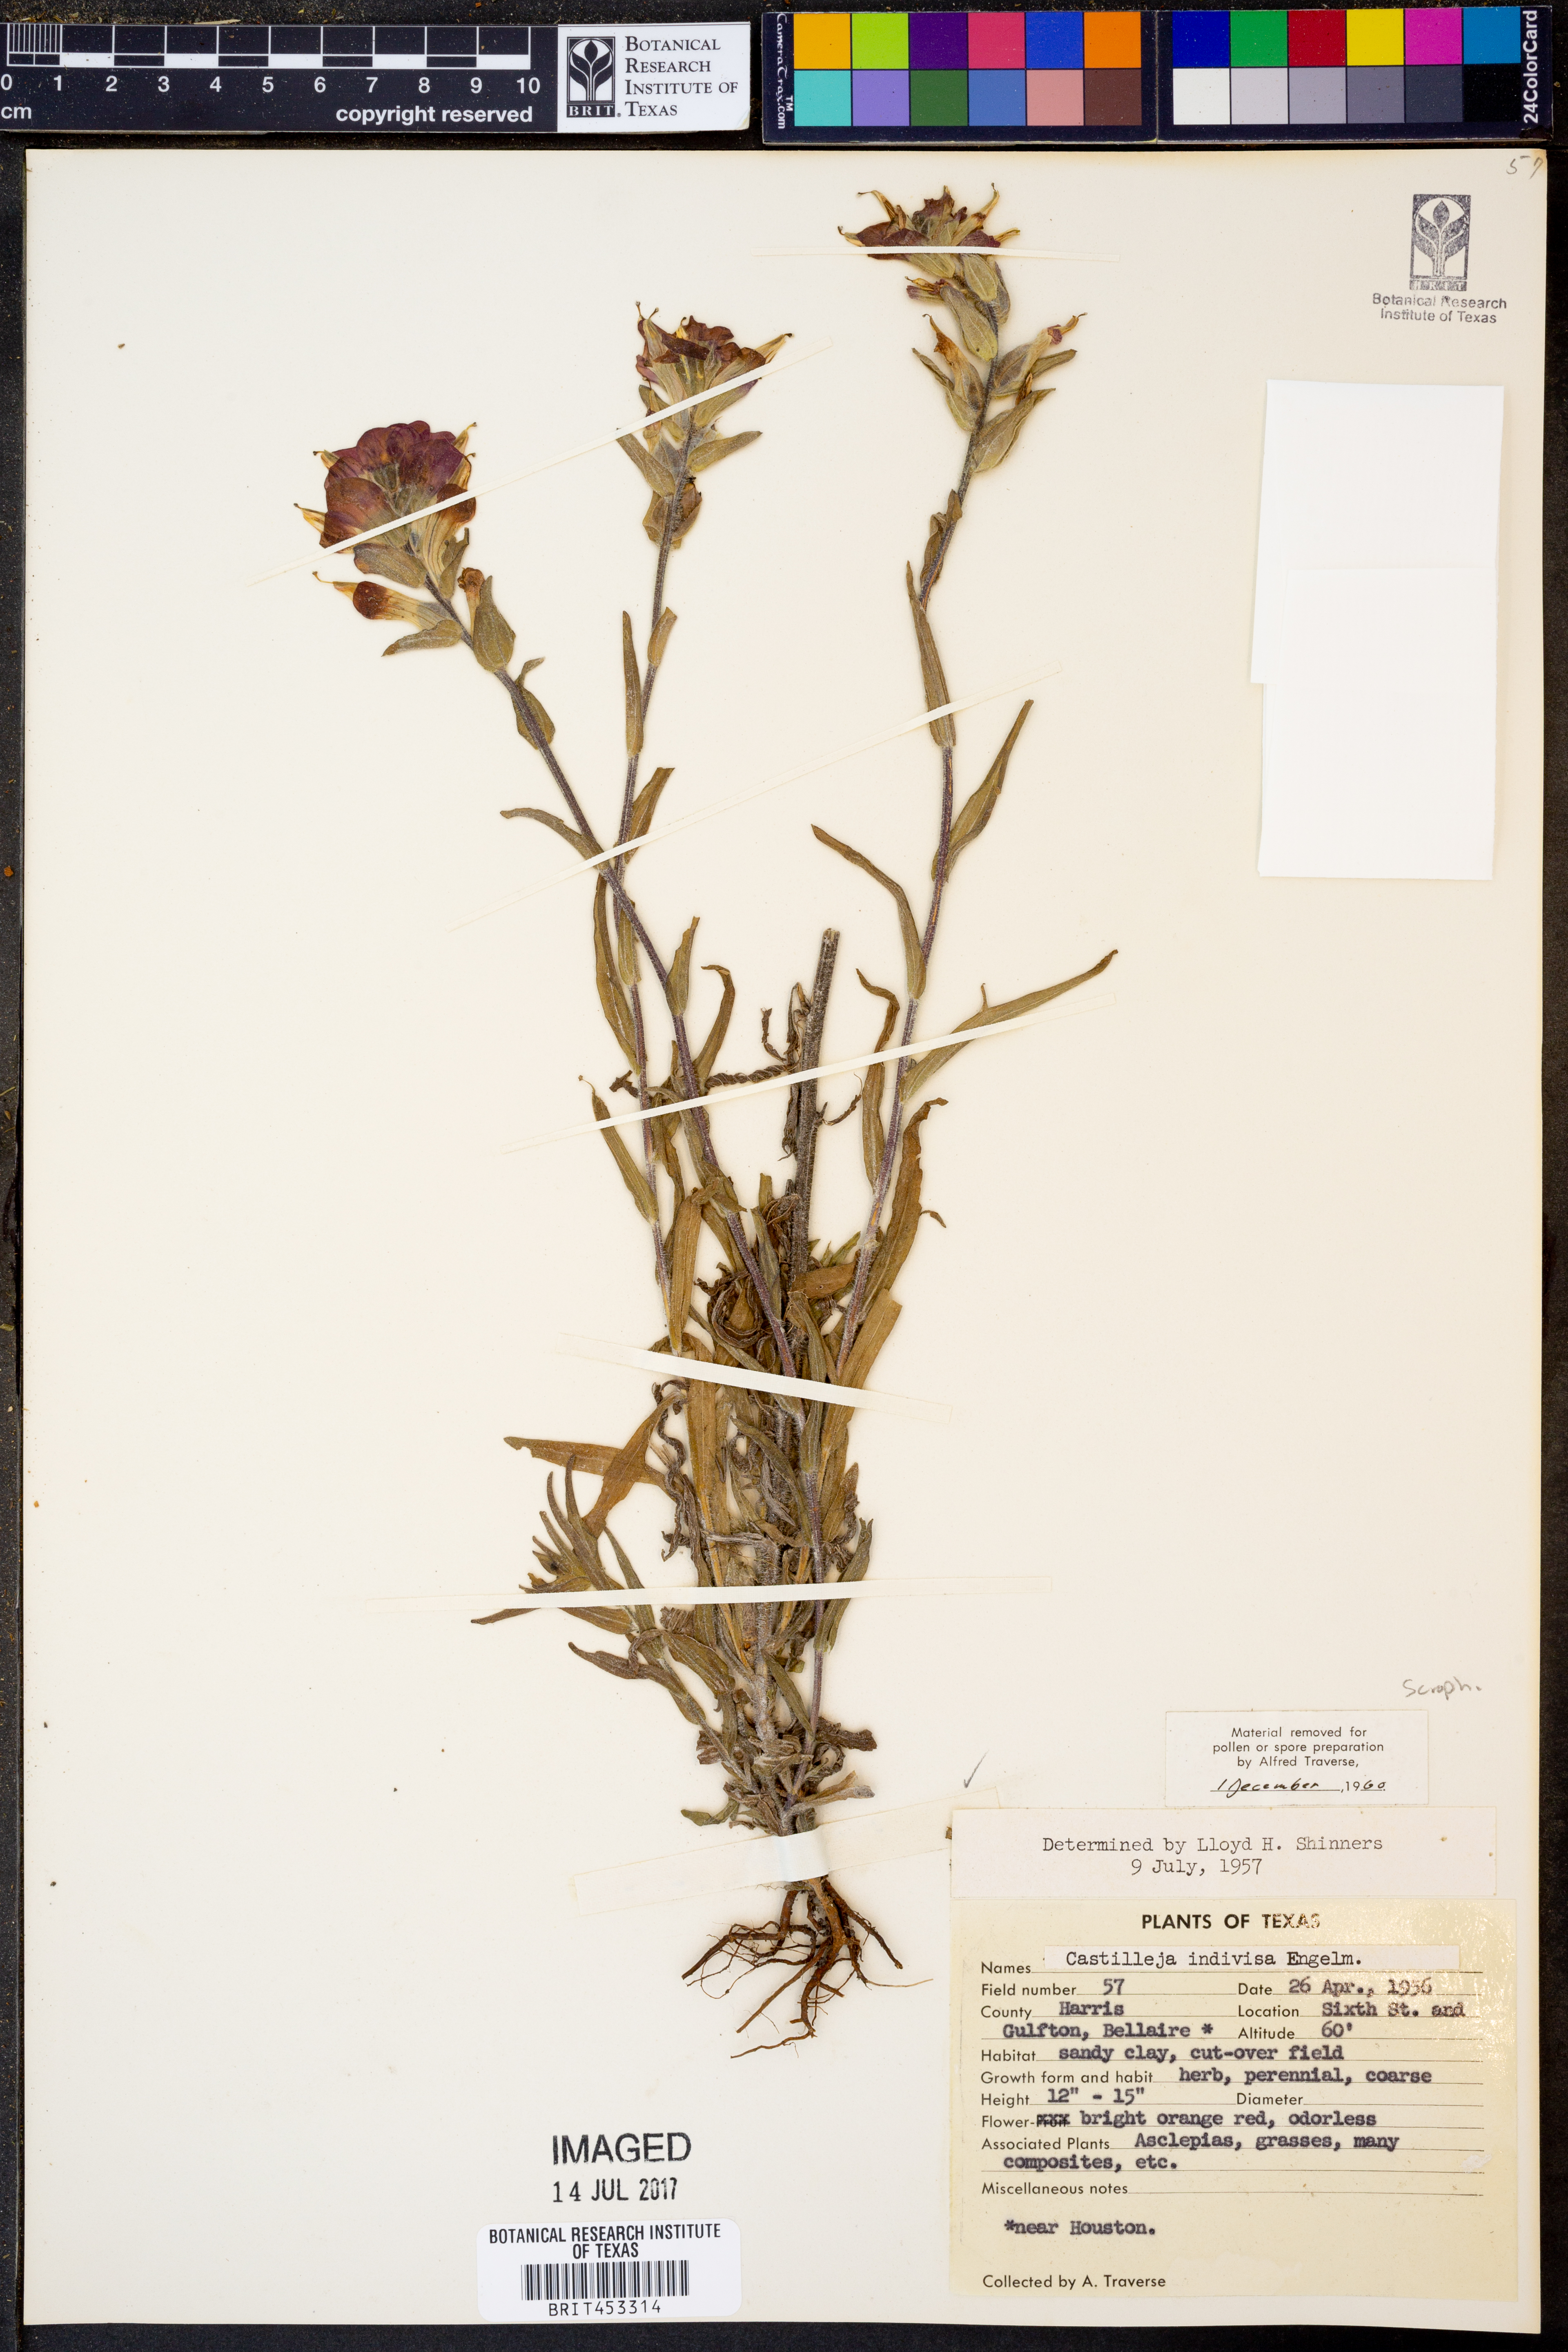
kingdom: Plantae
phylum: Tracheophyta
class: Magnoliopsida
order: Lamiales
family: Orobanchaceae
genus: Castilleja
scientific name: Castilleja indivisa
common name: Texas paintbrush
